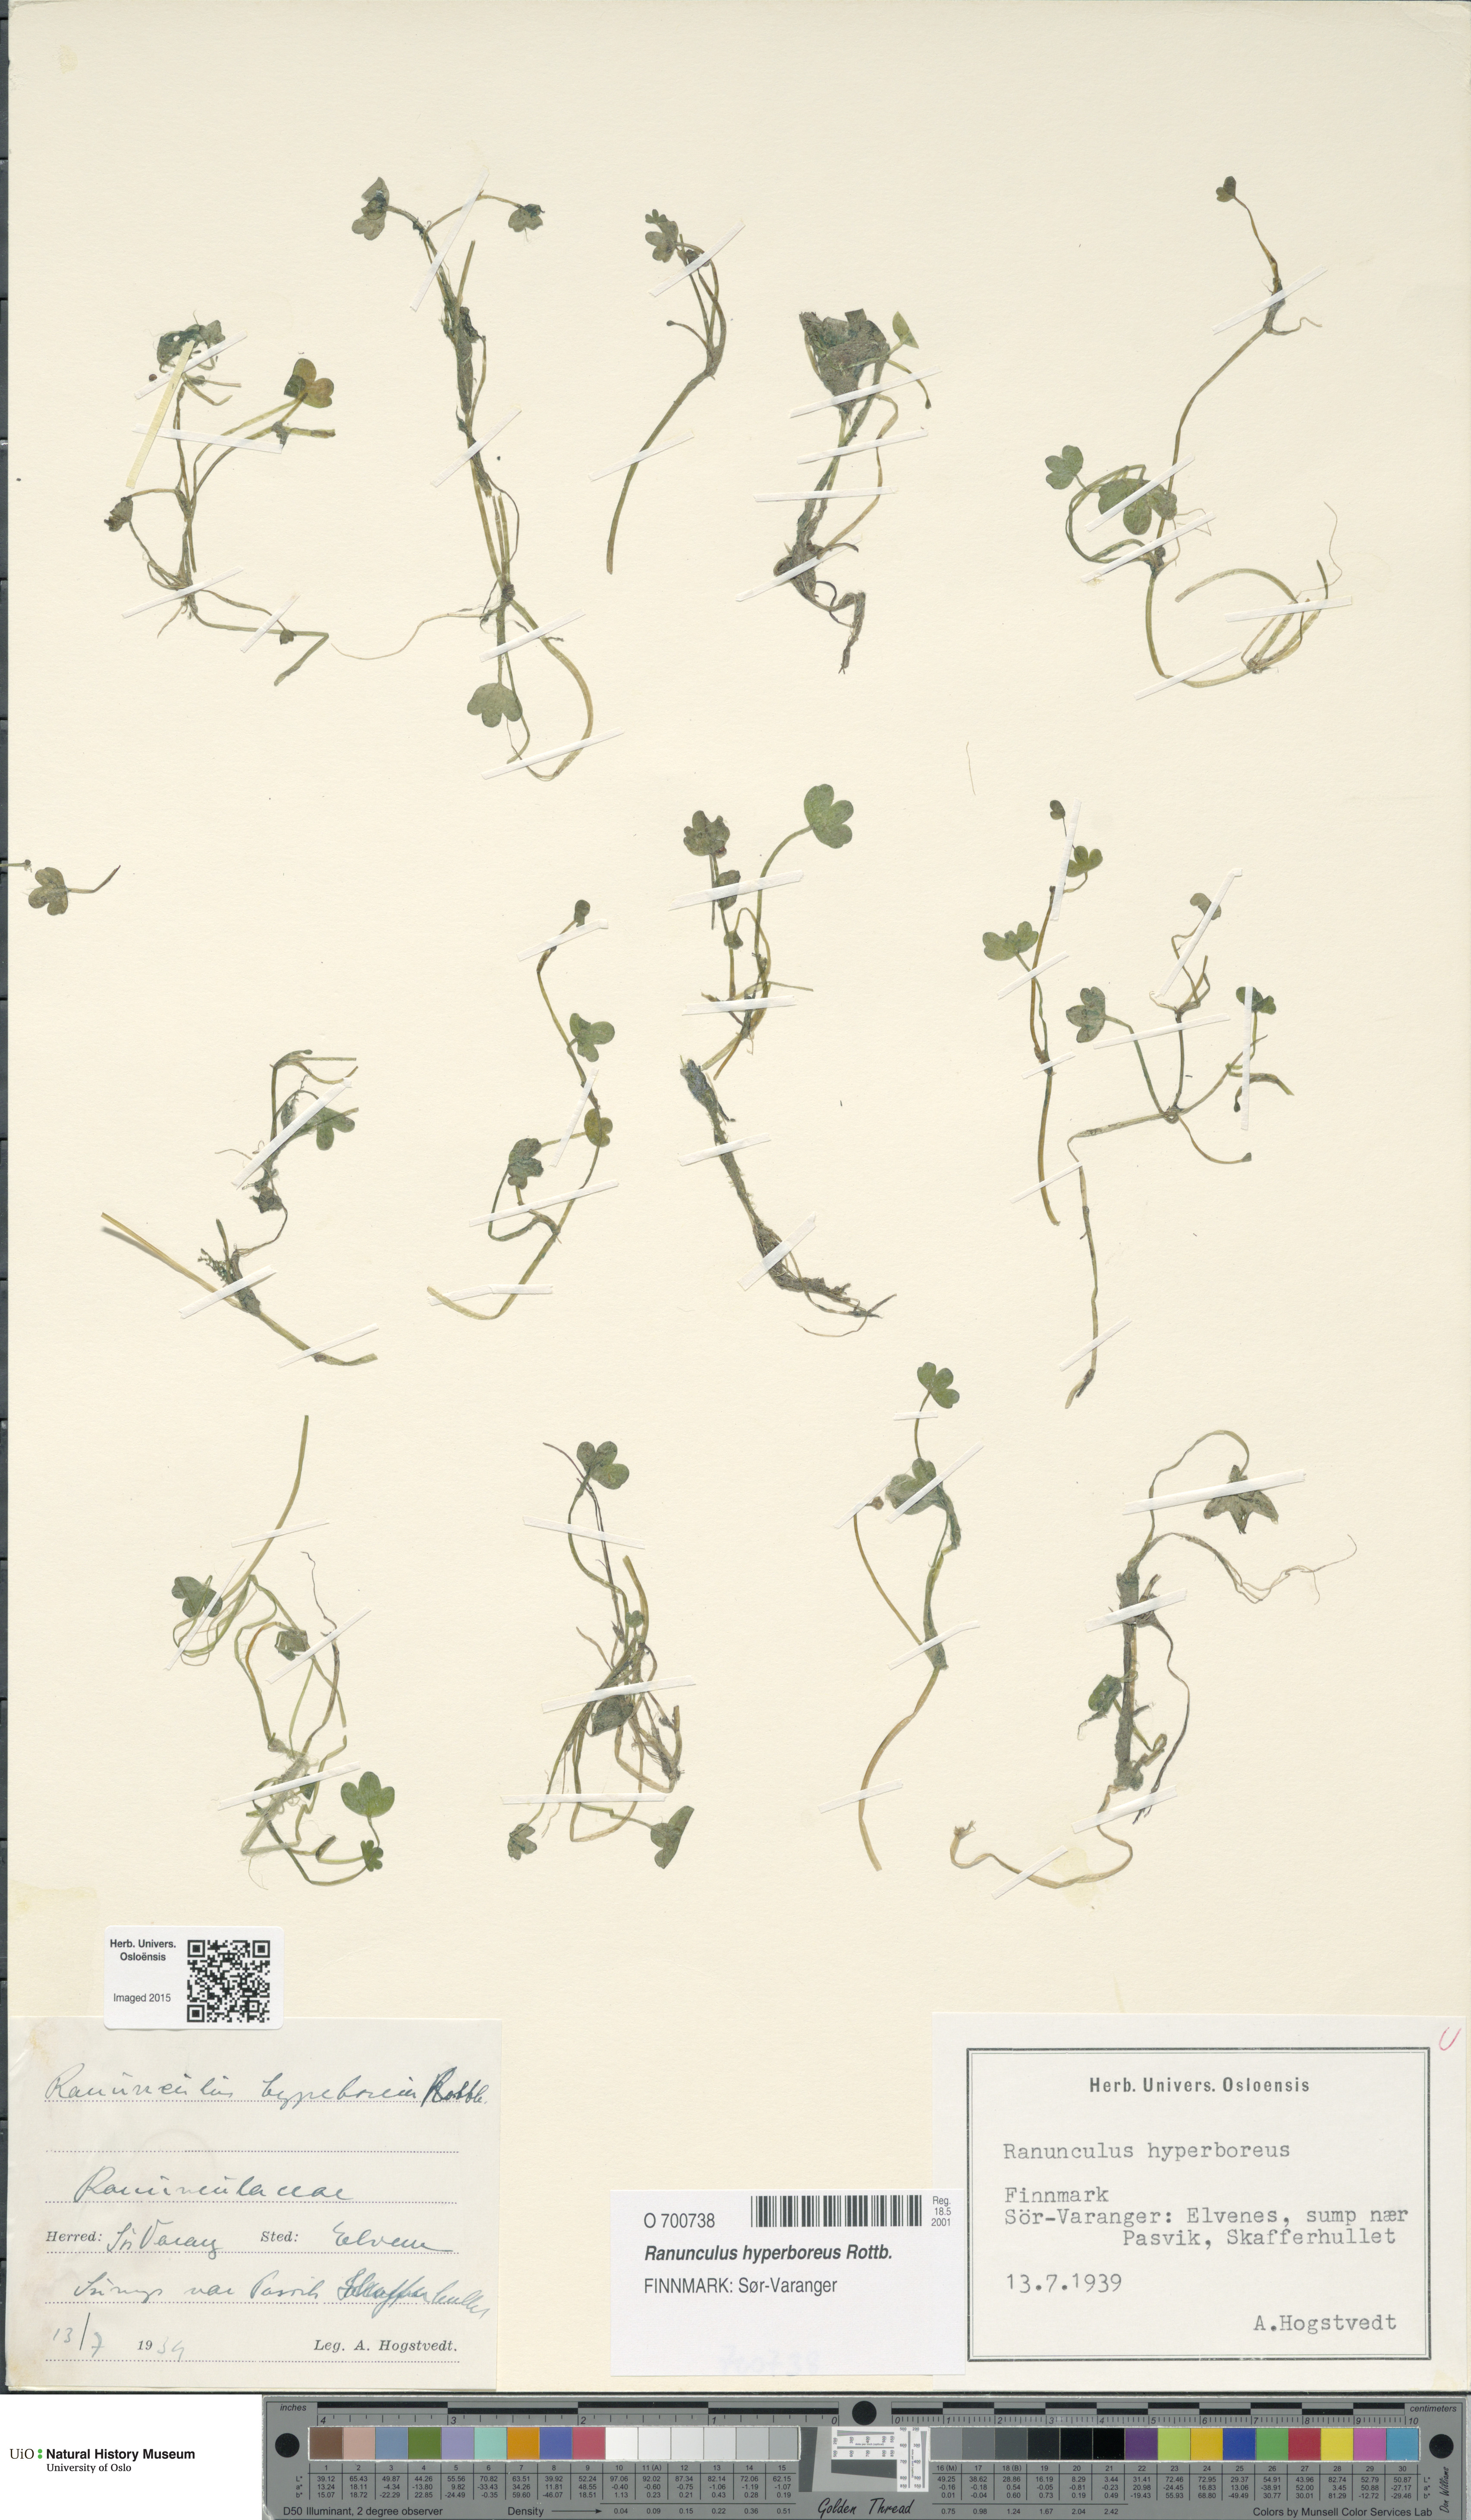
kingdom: Plantae
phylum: Tracheophyta
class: Magnoliopsida
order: Ranunculales
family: Ranunculaceae
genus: Ranunculus
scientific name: Ranunculus hyperboreus
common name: Arctic buttercup
